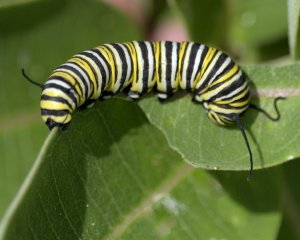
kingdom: Animalia
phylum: Arthropoda
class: Insecta
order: Lepidoptera
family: Nymphalidae
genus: Danaus
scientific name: Danaus plexippus
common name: Monarch
